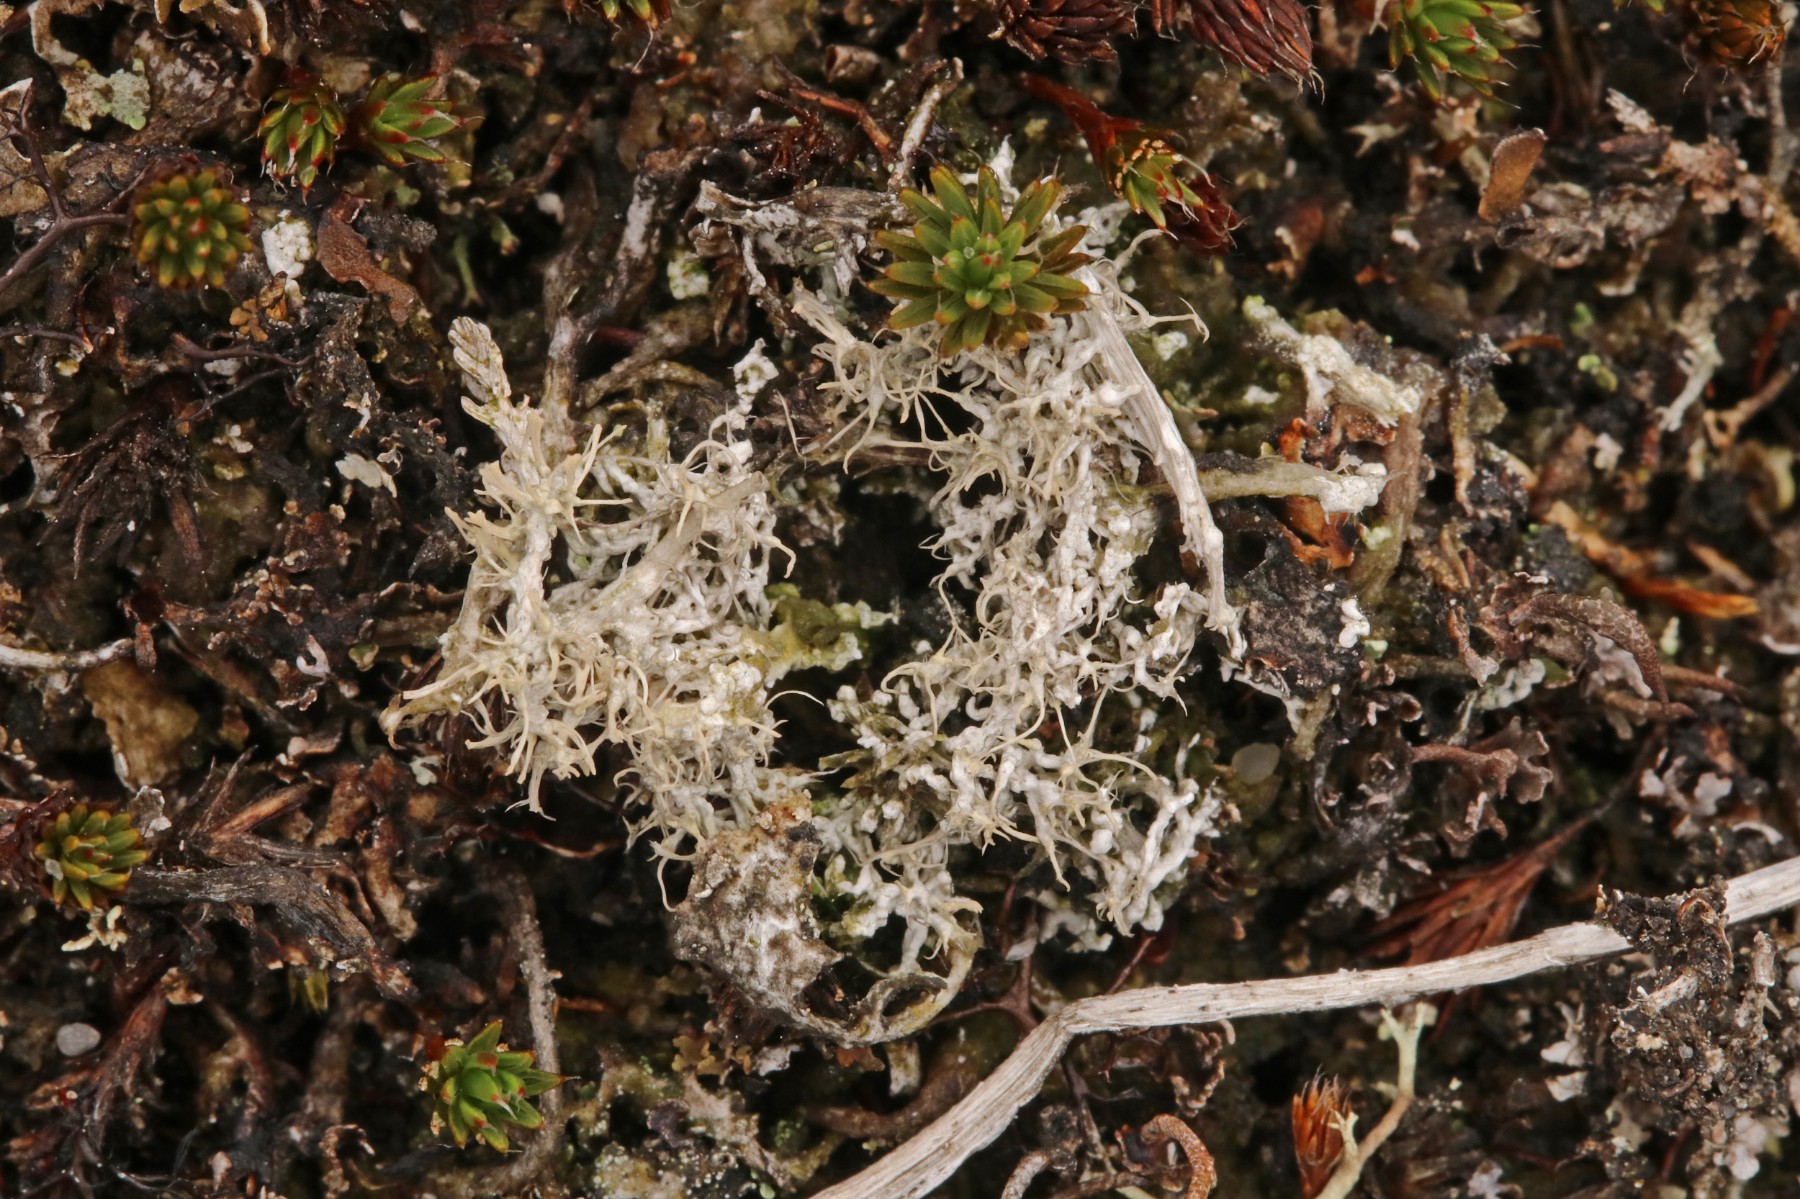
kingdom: Fungi
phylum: Ascomycota
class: Lecanoromycetes
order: Pertusariales
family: Ochrolechiaceae
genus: Ochrolechia
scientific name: Ochrolechia frigida
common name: fjeld-blegskivelav
